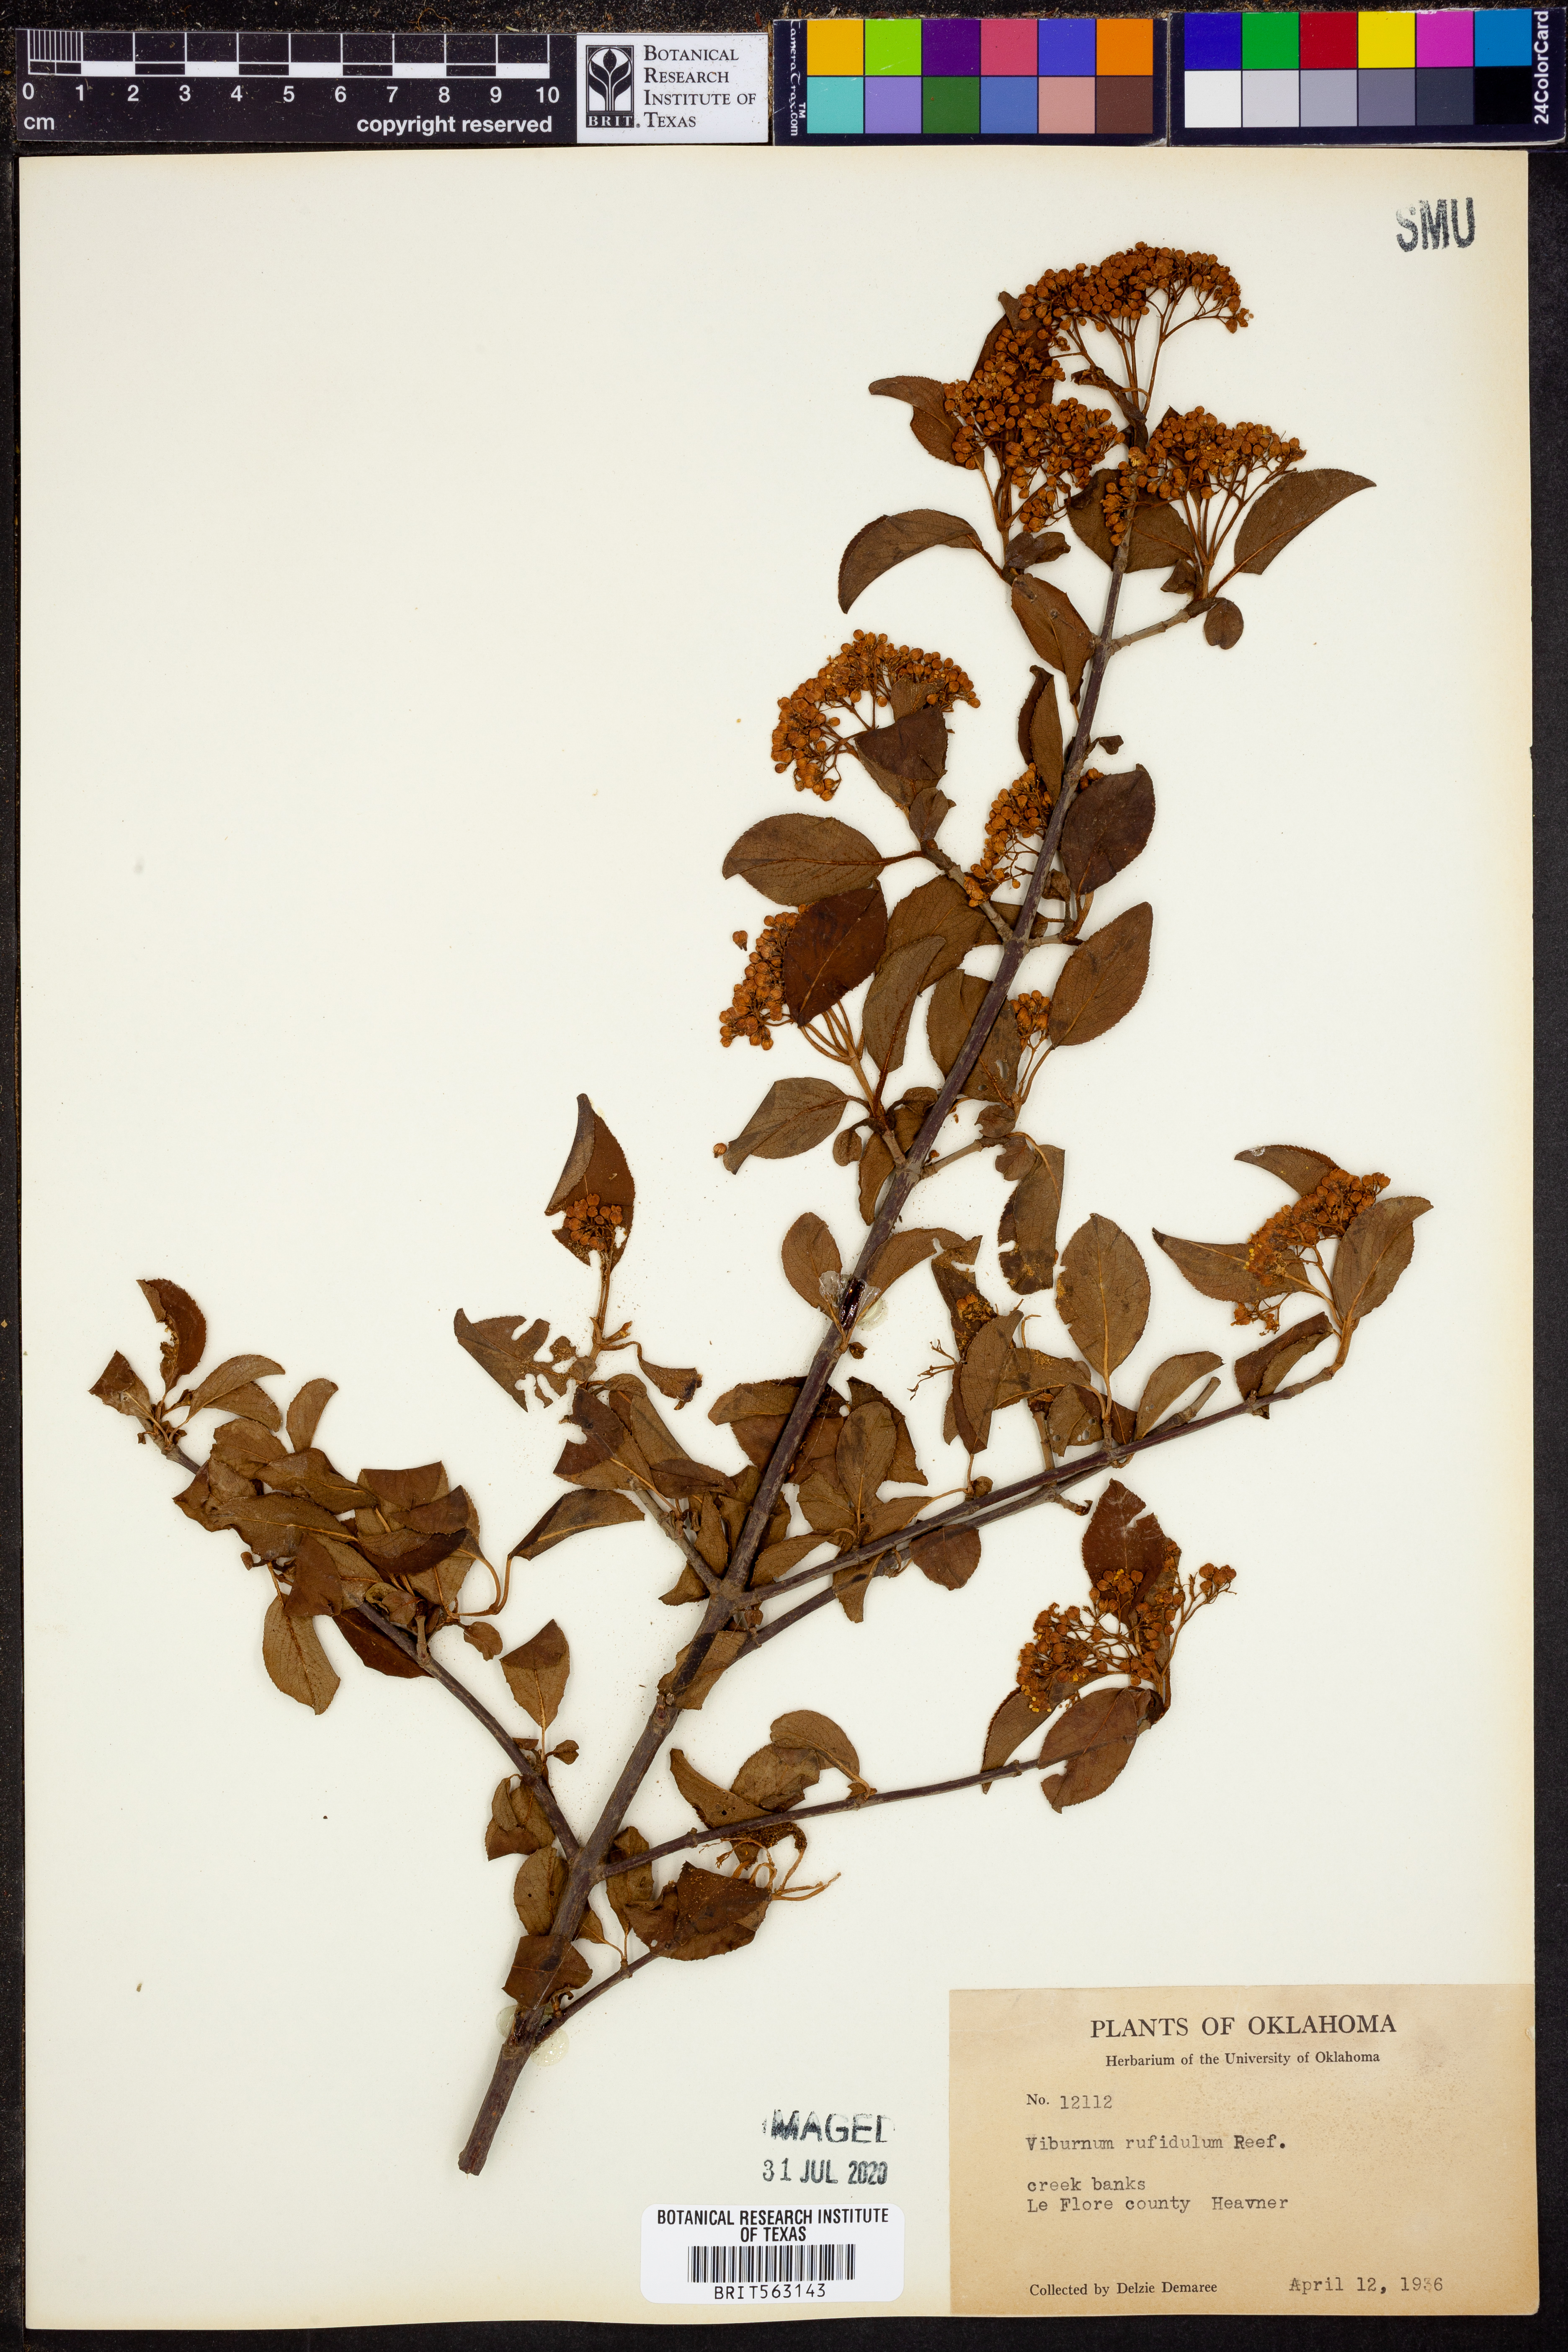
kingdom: Plantae
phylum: Tracheophyta
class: Magnoliopsida
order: Dipsacales
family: Viburnaceae
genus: Viburnum
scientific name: Viburnum rufidulum
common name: Blue haw
